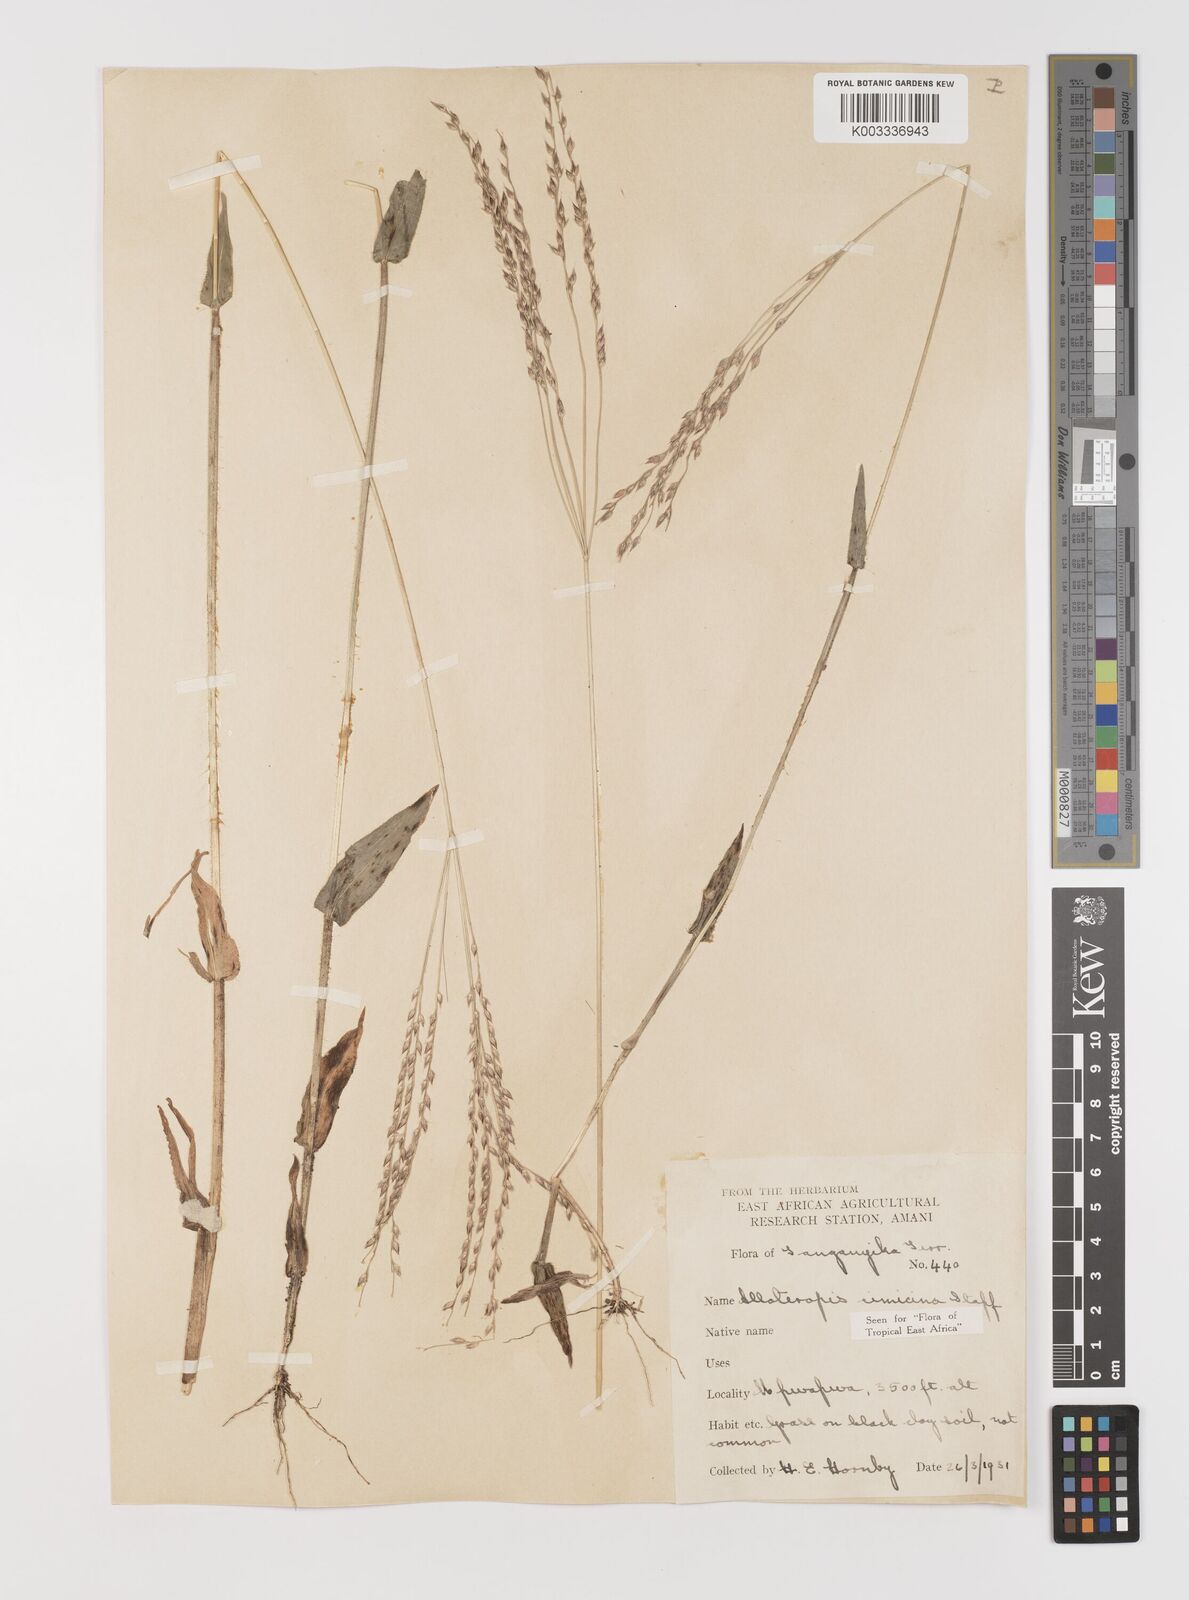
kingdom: Plantae
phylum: Tracheophyta
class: Liliopsida
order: Poales
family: Poaceae
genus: Alloteropsis
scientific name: Alloteropsis cimicina
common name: Summergrass
